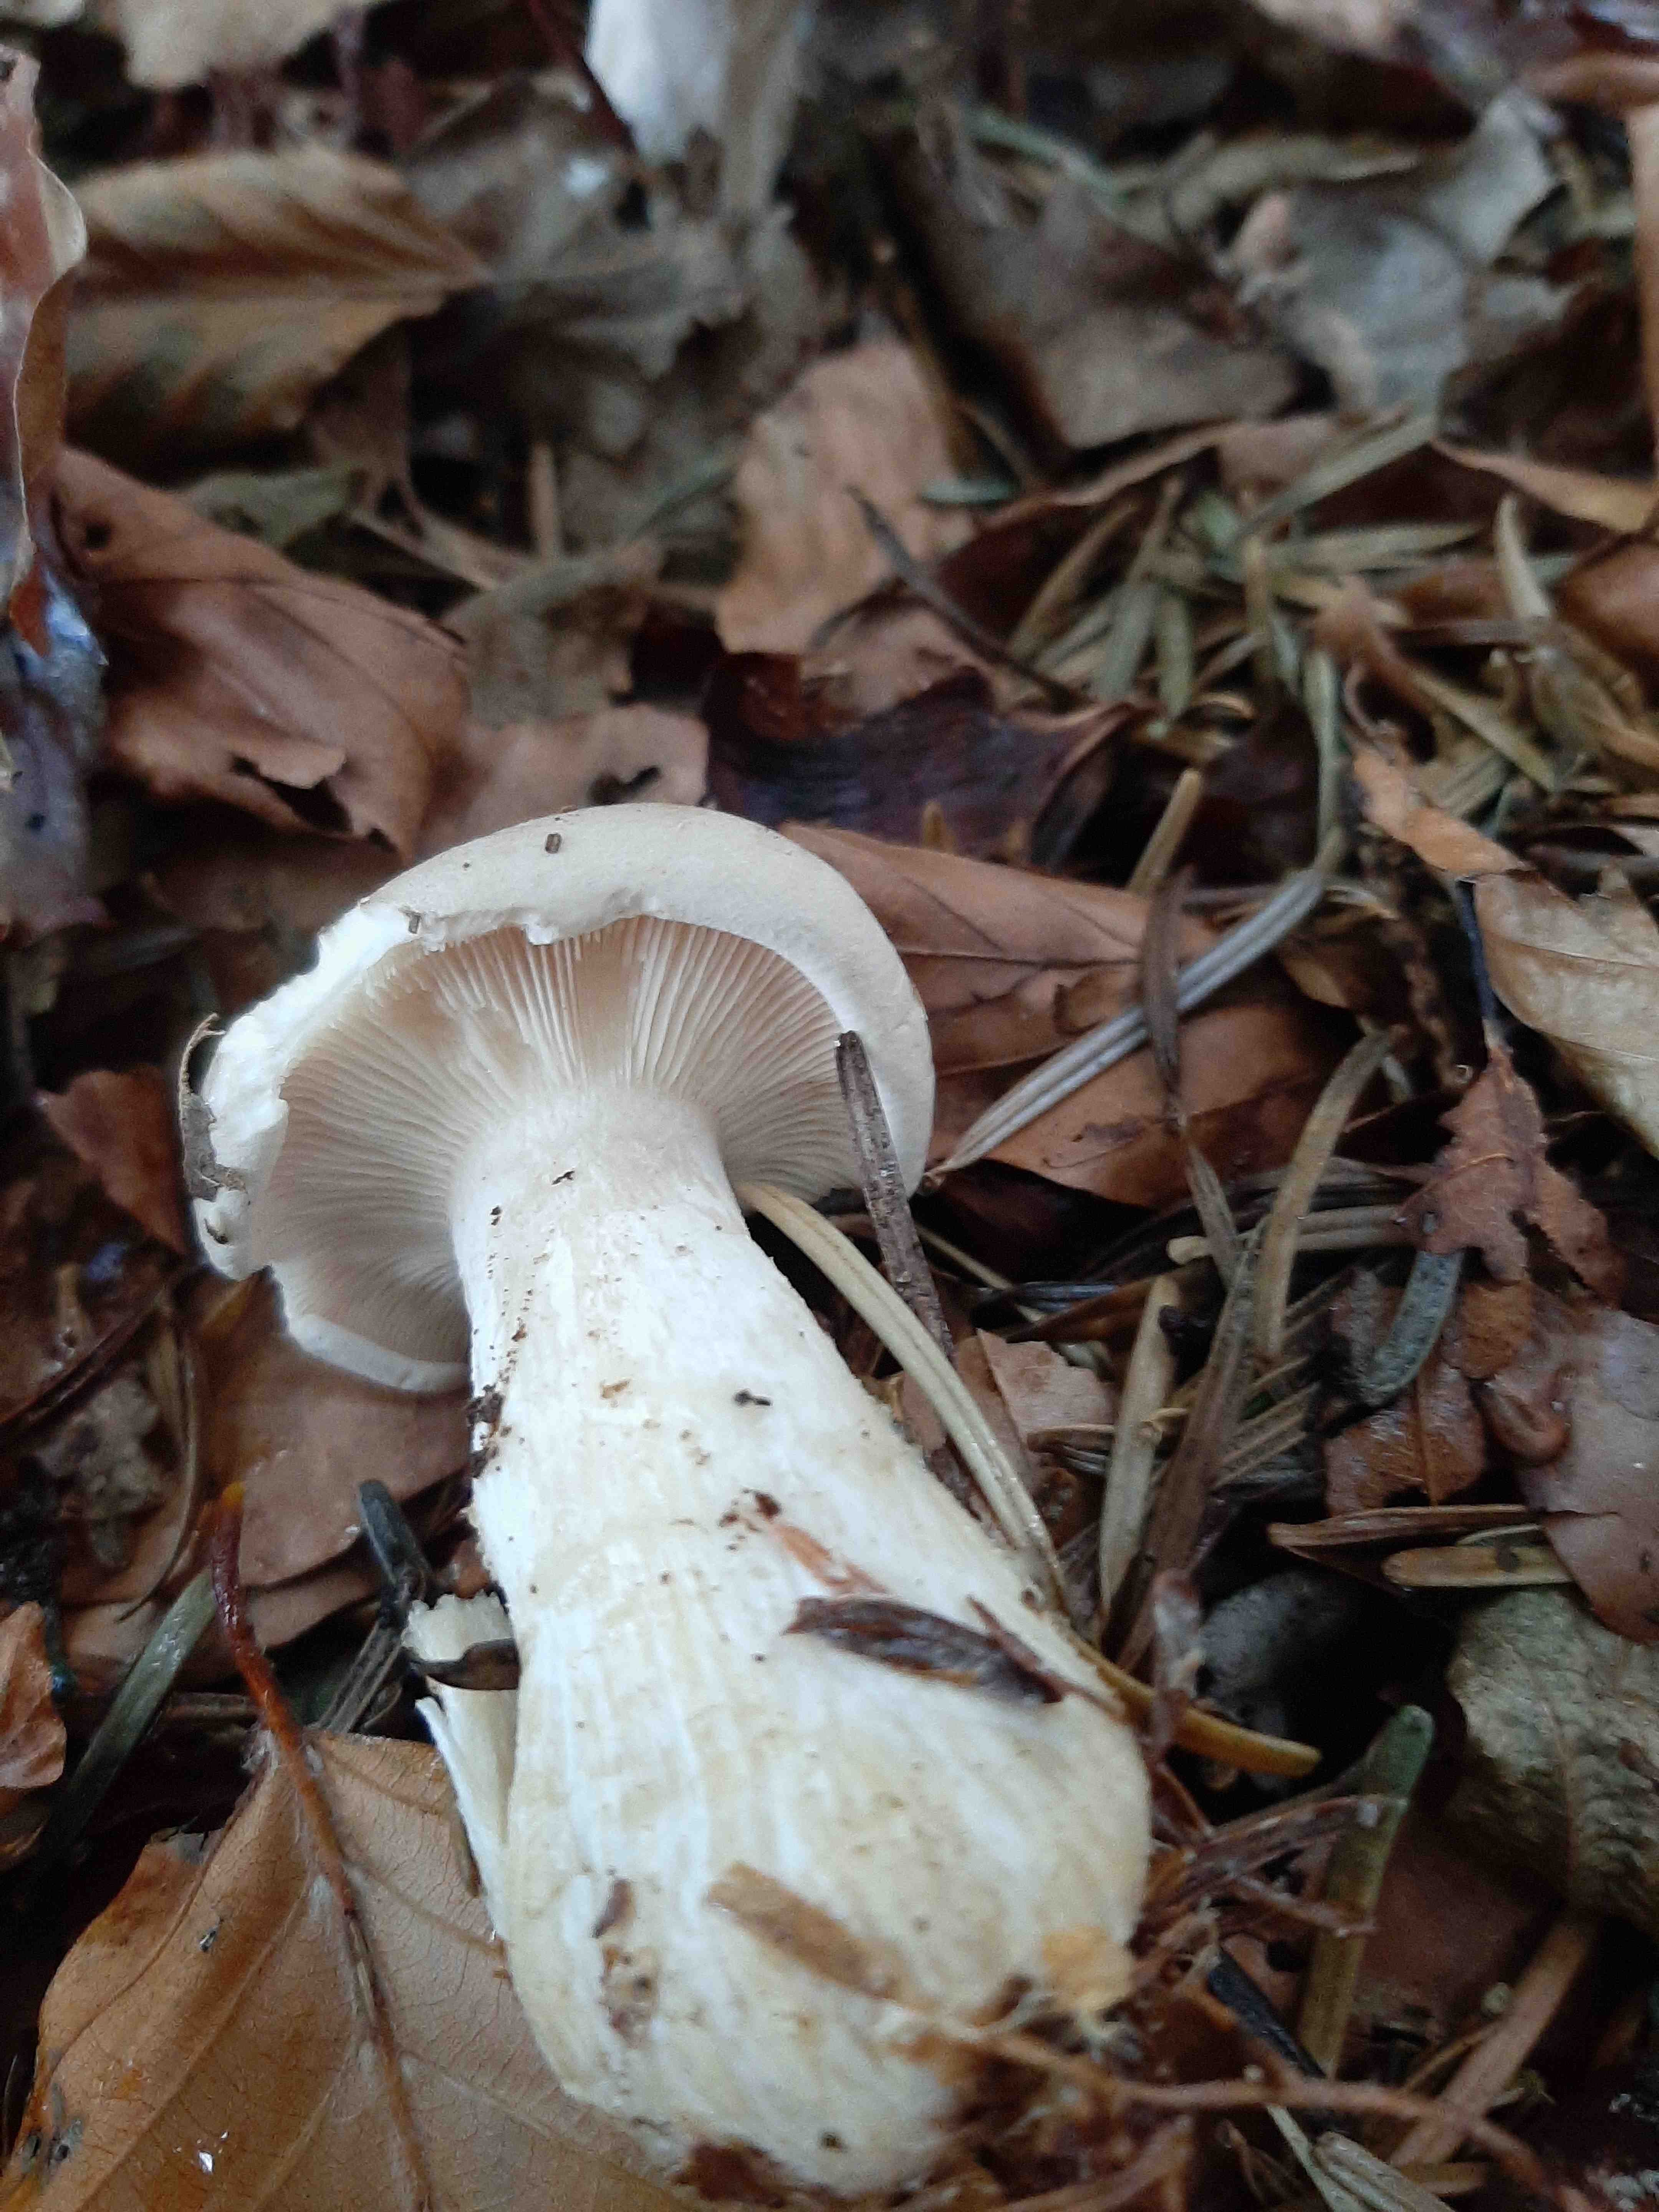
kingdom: Fungi
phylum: Basidiomycota
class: Agaricomycetes
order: Agaricales
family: Tricholomataceae
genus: Clitocybe
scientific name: Clitocybe nebularis
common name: tåge-tragthat
